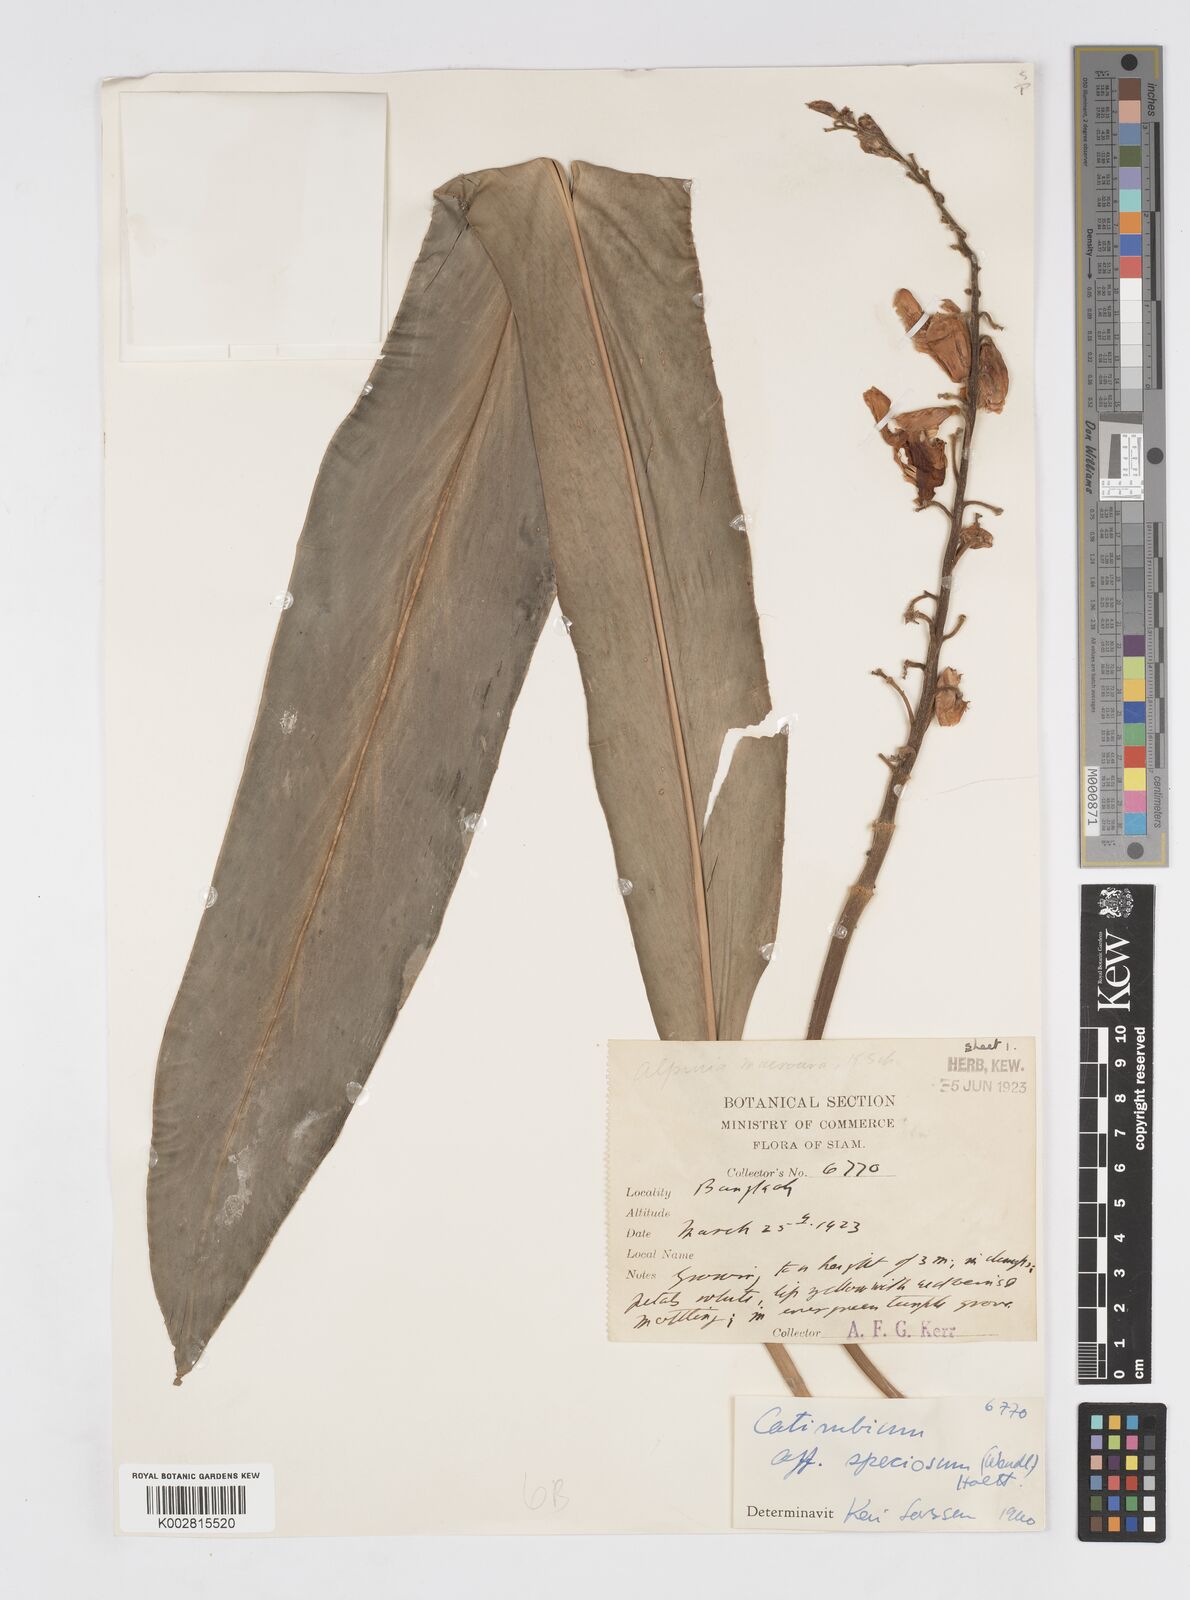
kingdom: Plantae
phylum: Tracheophyta
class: Liliopsida
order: Zingiberales
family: Zingiberaceae
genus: Alpinia
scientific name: Alpinia zerumbet
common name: Shellplant
